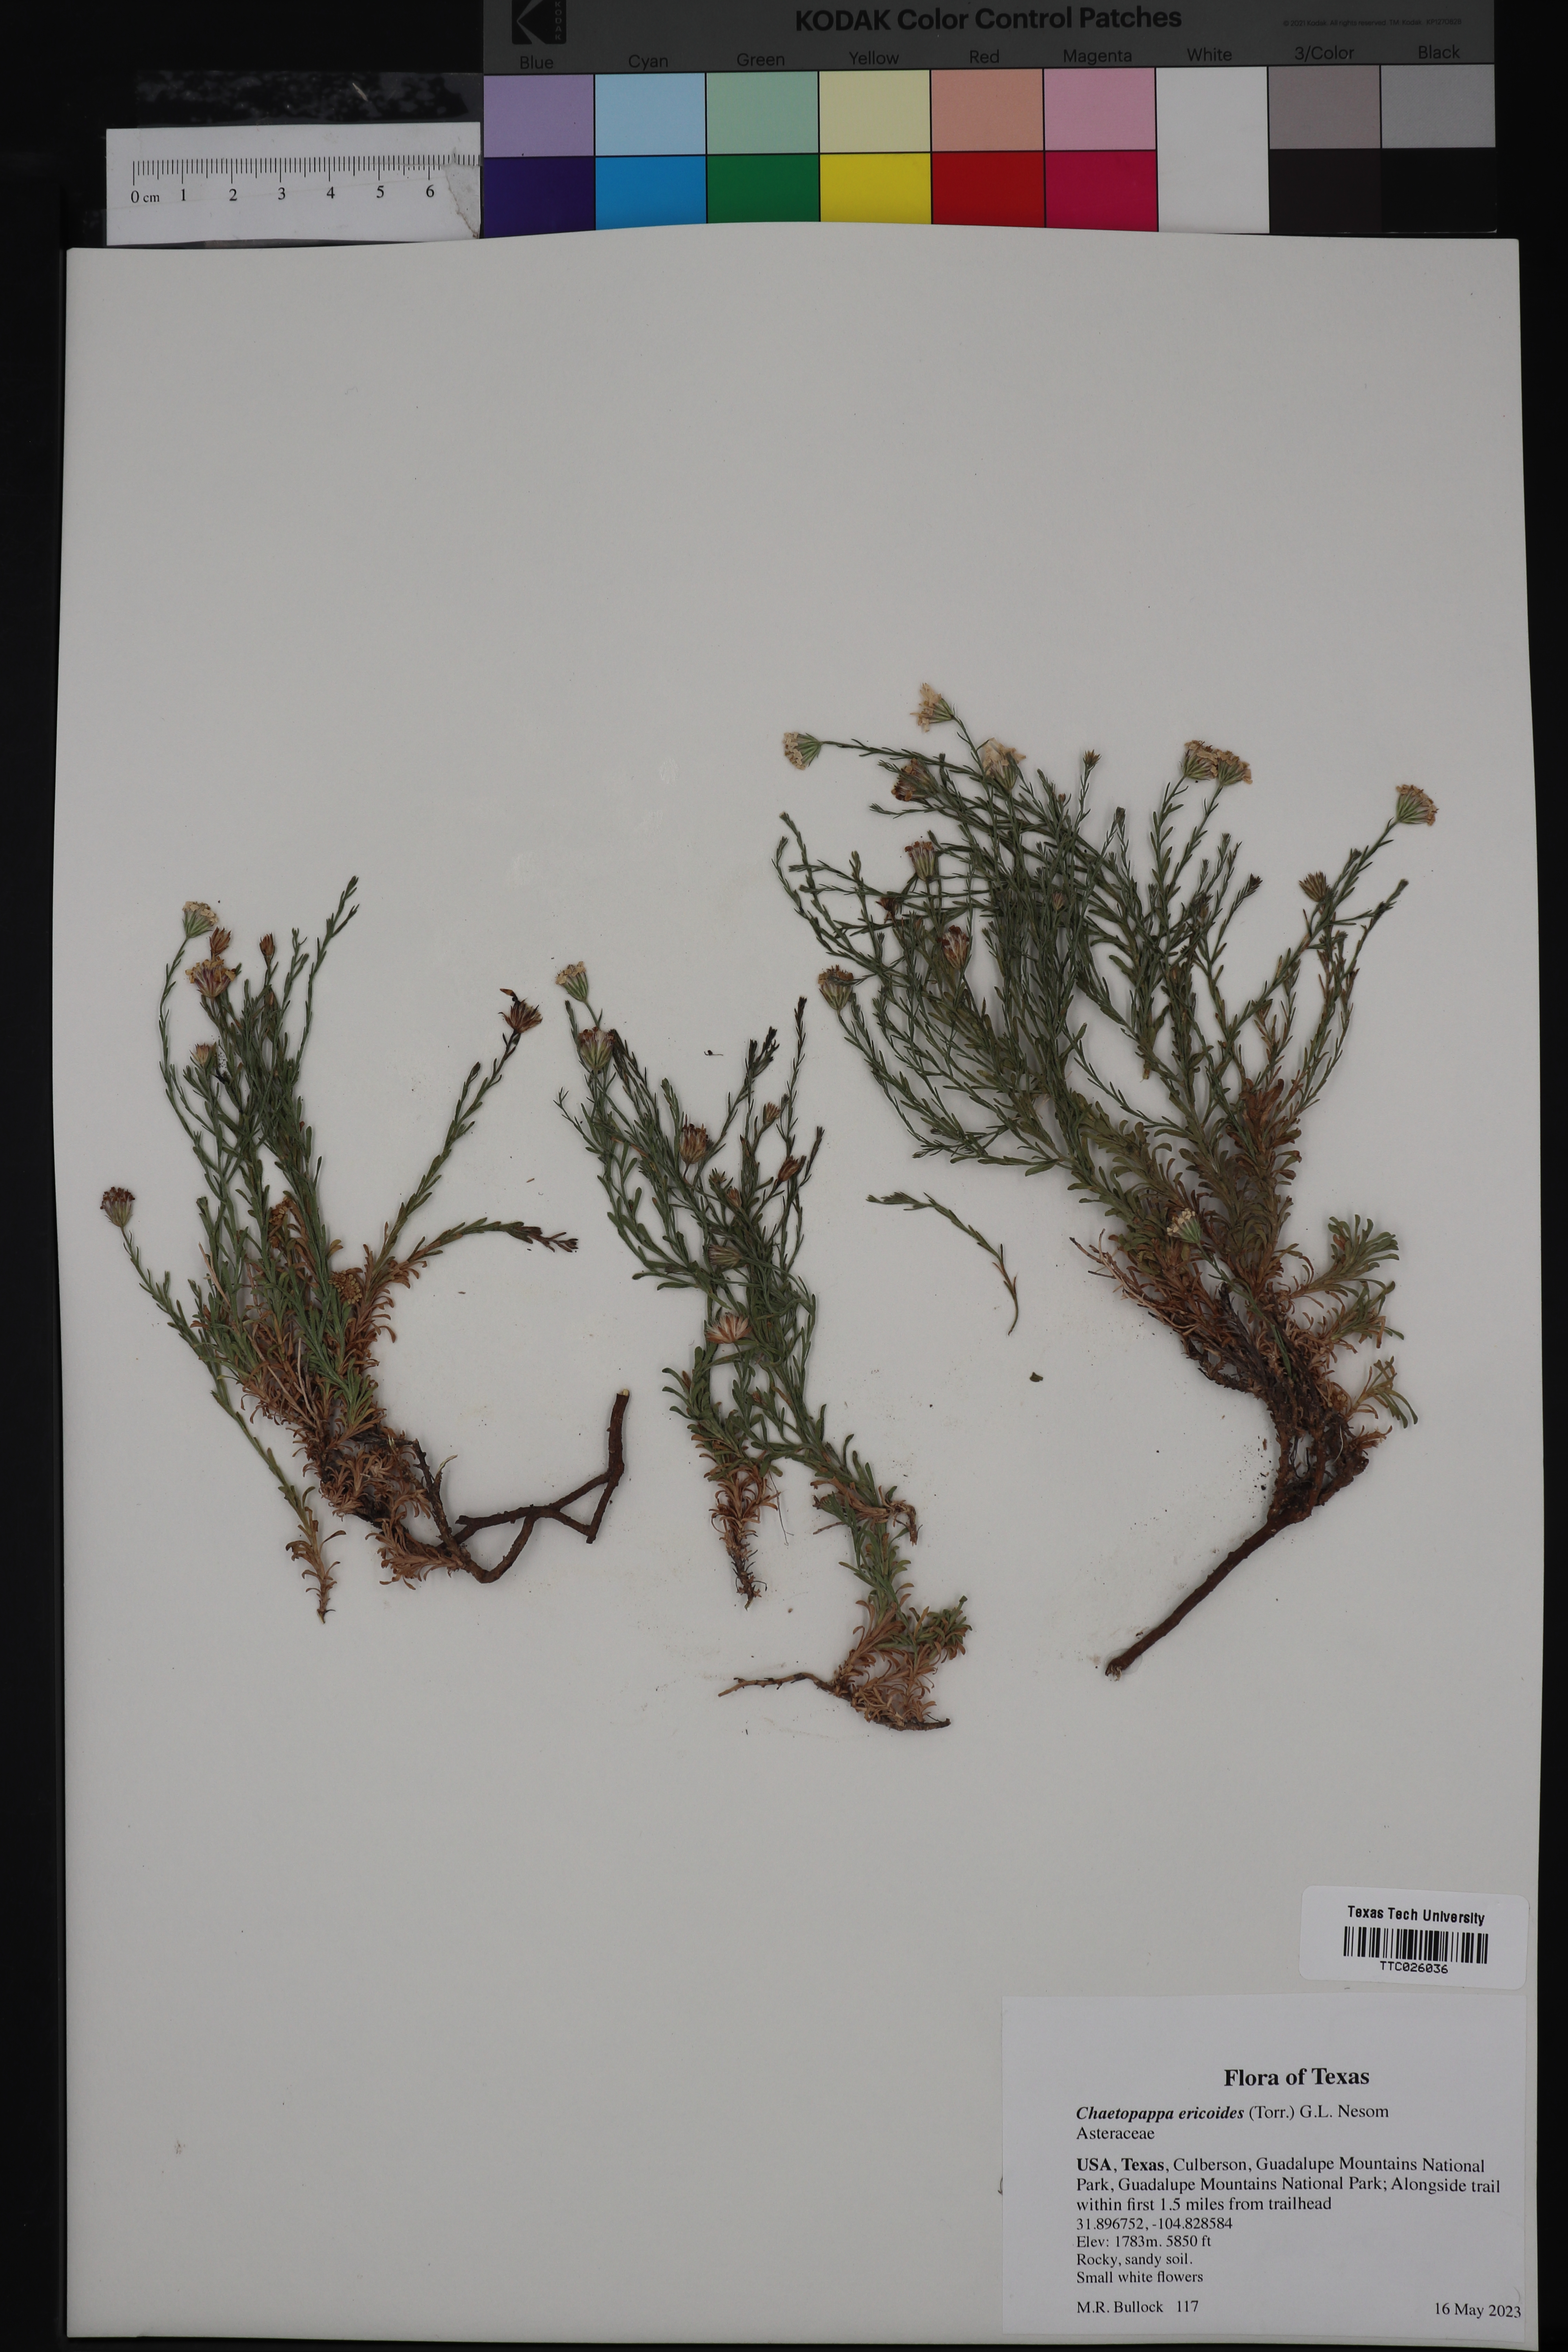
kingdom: Plantae
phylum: Tracheophyta
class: Magnoliopsida
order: Asterales
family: Asteraceae
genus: Chaetopappa
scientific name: Chaetopappa ericoides
